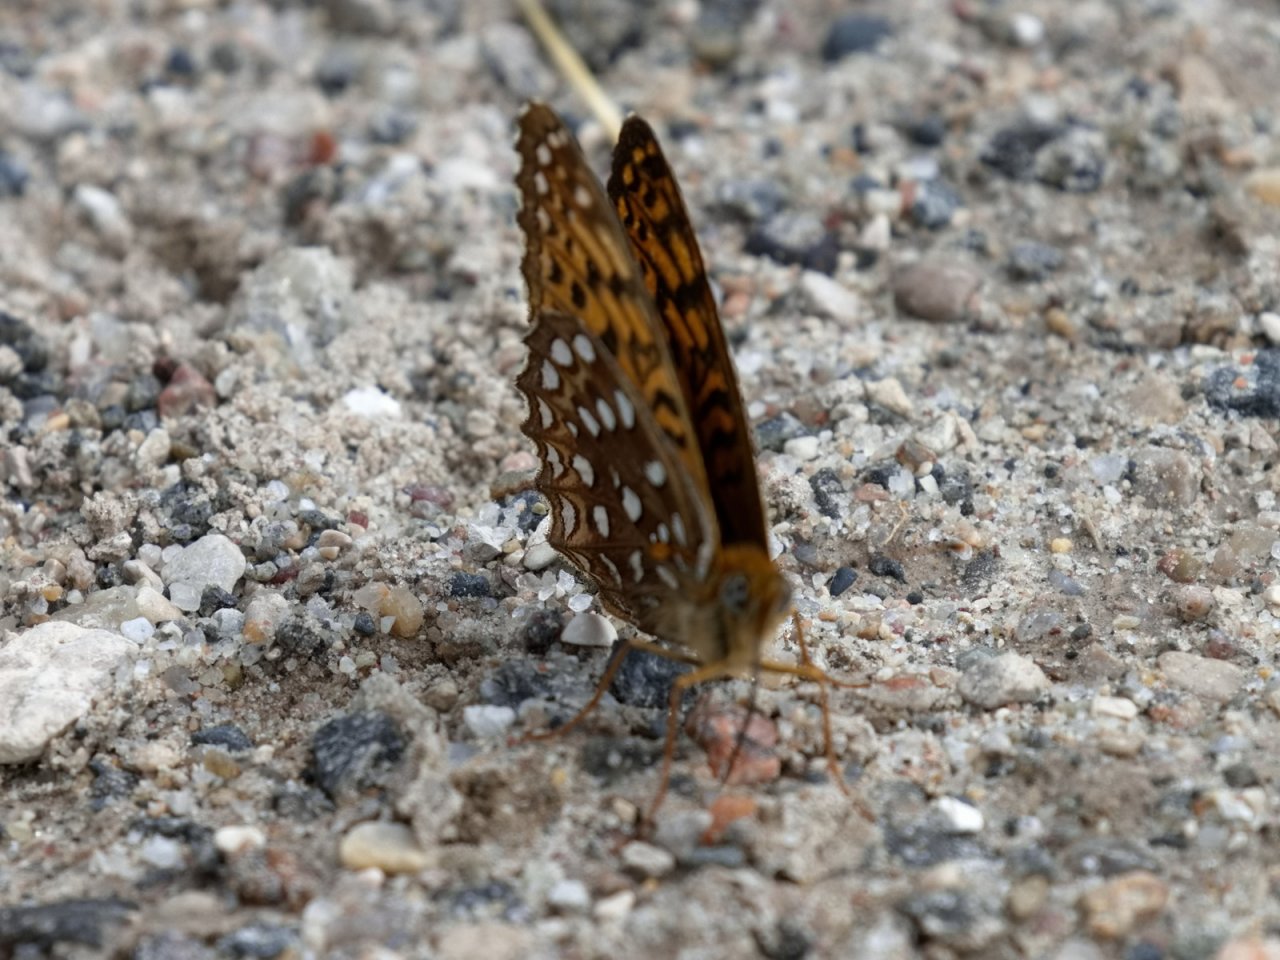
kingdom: Animalia
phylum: Arthropoda
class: Insecta
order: Lepidoptera
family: Nymphalidae
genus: Speyeria
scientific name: Speyeria atlantis
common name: Atlantis Fritillary
